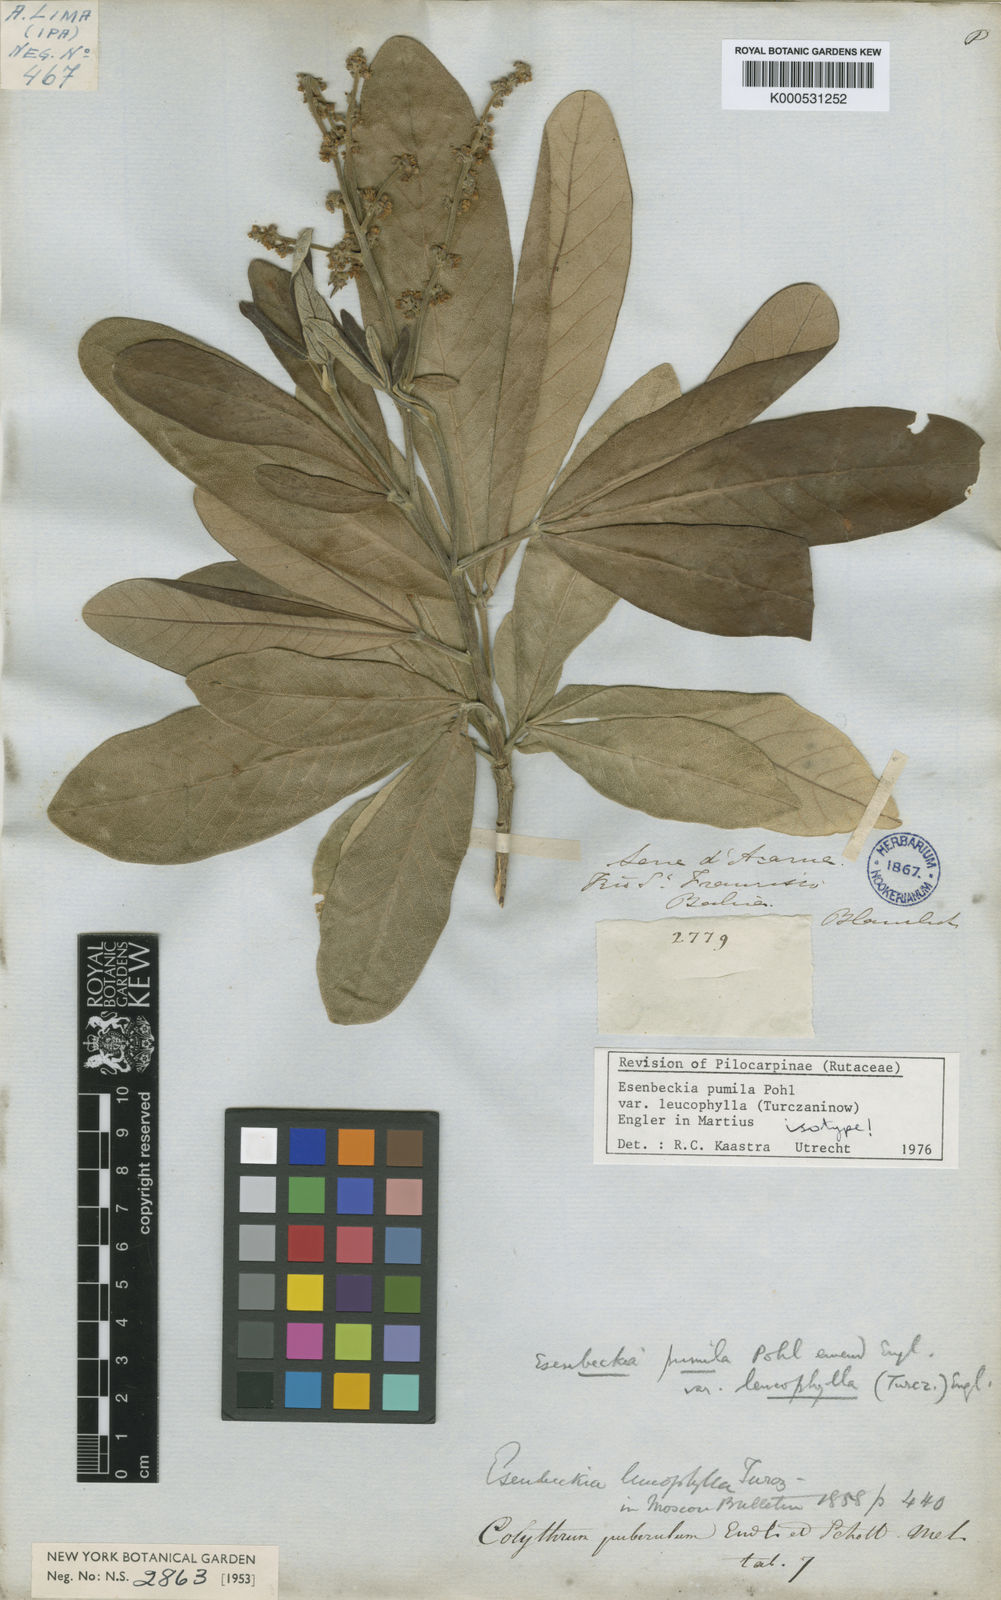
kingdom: Plantae
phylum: Tracheophyta
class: Magnoliopsida
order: Sapindales
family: Rutaceae
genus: Esenbeckia
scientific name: Esenbeckia pumila
